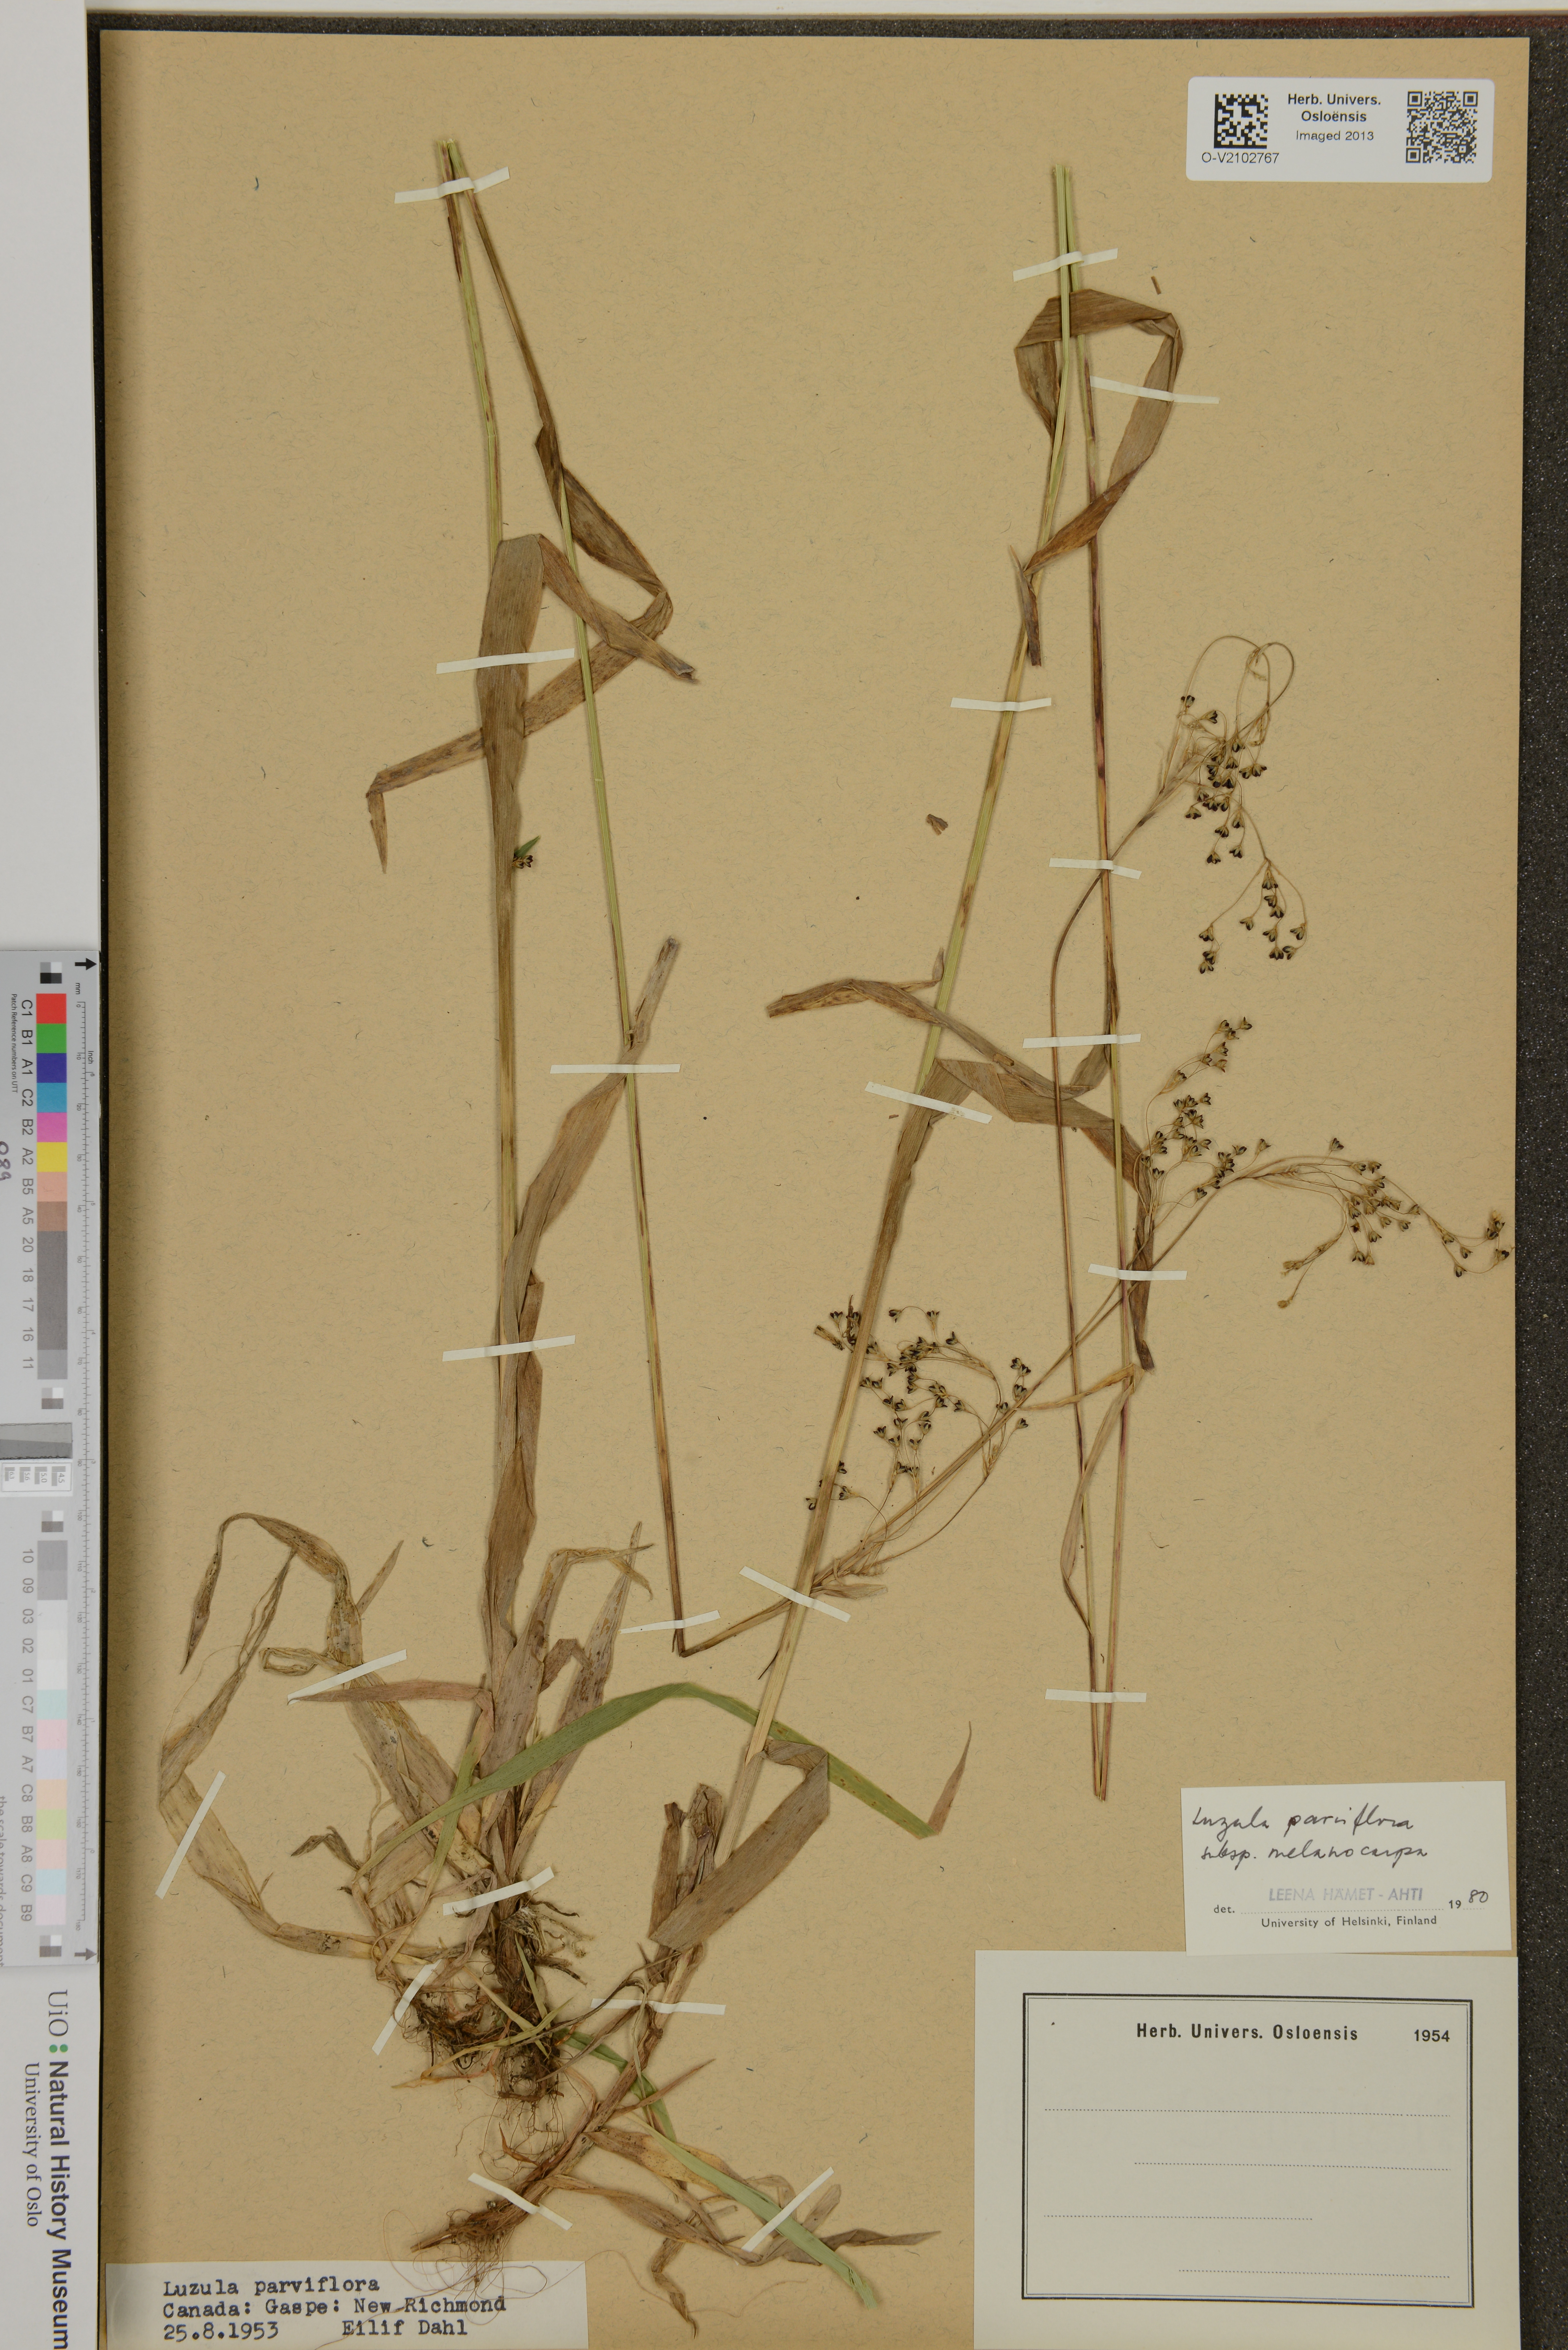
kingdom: Plantae
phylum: Tracheophyta
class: Liliopsida
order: Poales
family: Juncaceae
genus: Luzula
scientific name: Luzula parviflora
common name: Millet woodrush
